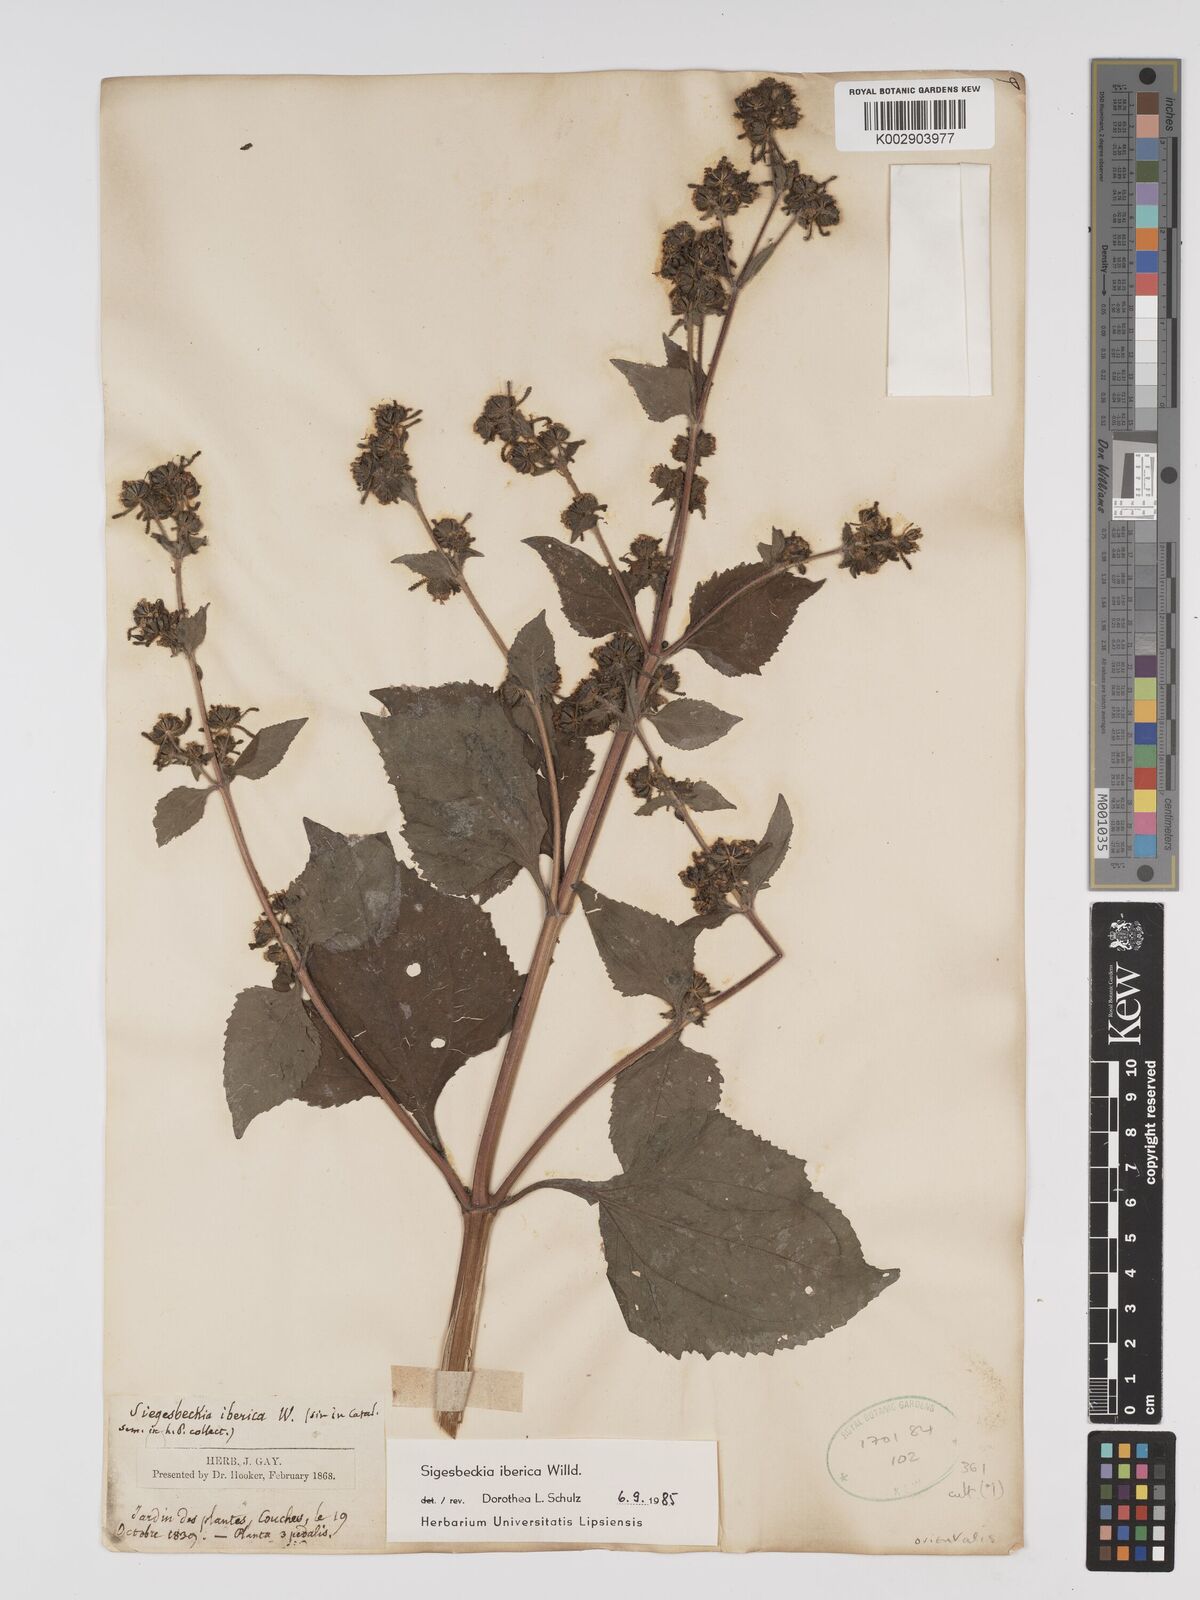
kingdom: Plantae
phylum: Tracheophyta
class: Magnoliopsida
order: Asterales
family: Asteraceae
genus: Sigesbeckia
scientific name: Sigesbeckia orientalis
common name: Eastern st paul's-wort
